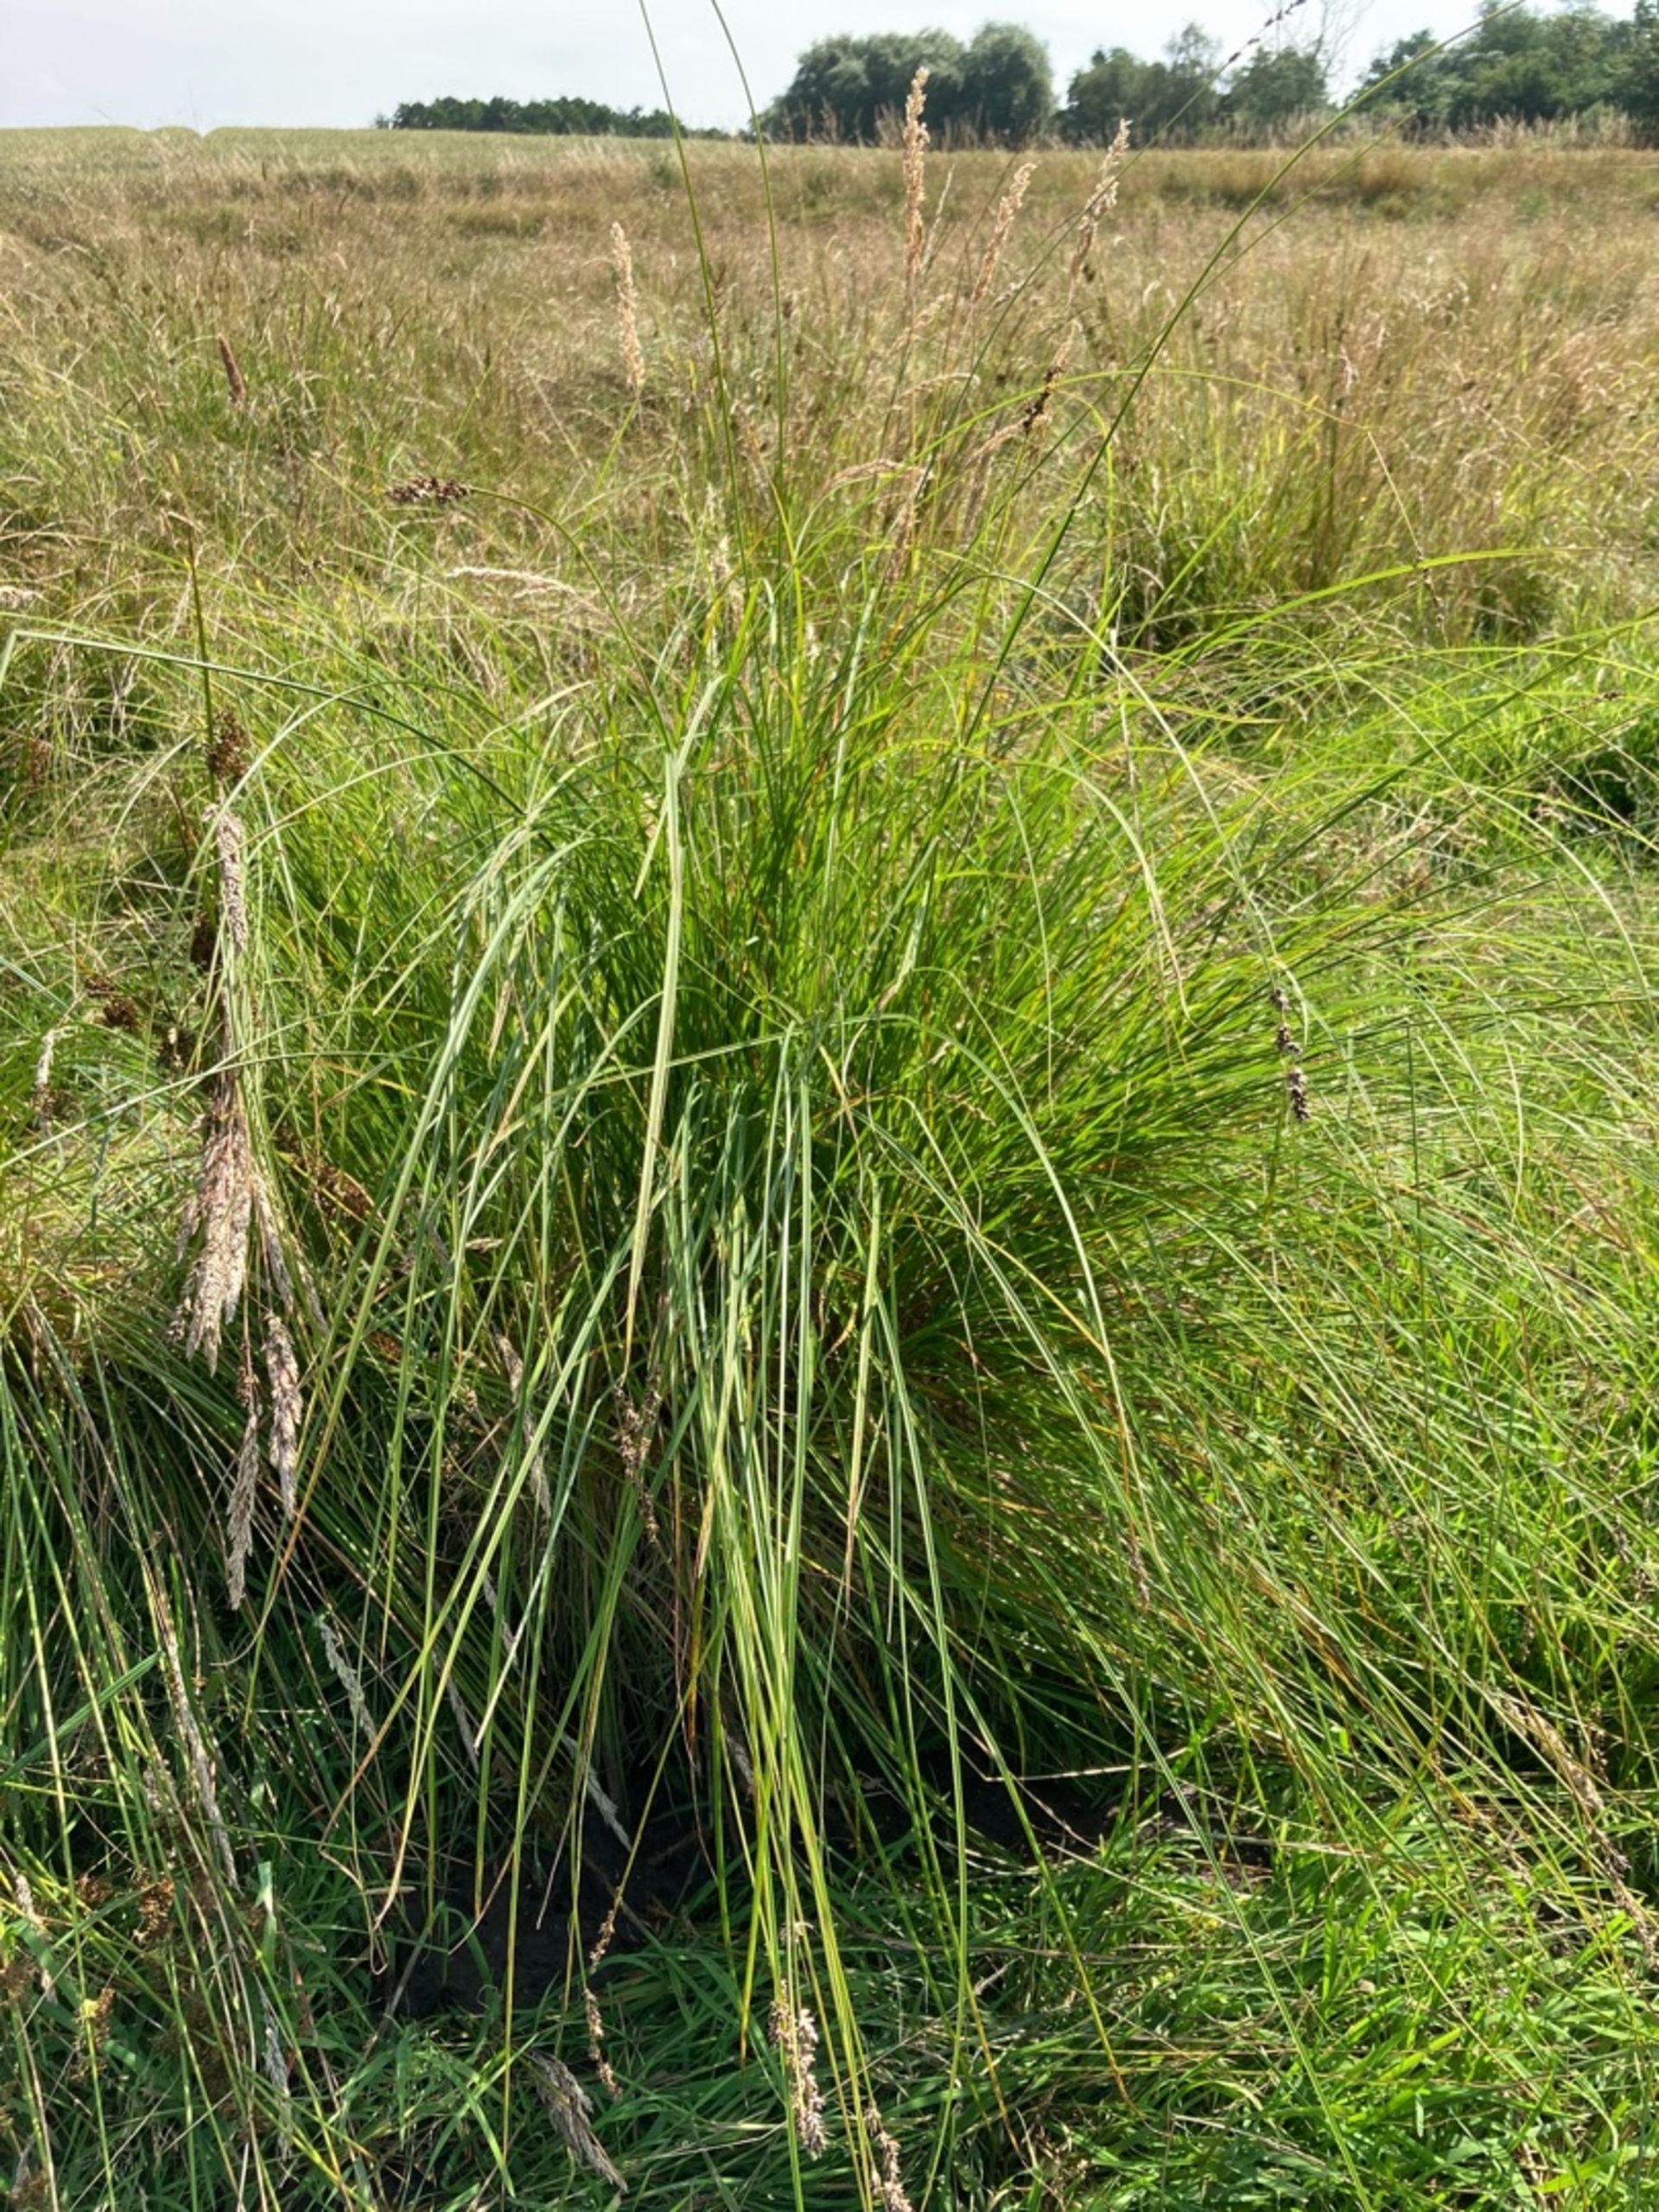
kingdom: Plantae
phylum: Tracheophyta
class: Liliopsida
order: Poales
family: Cyperaceae
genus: Carex
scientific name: Carex paniculata
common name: Top-star
